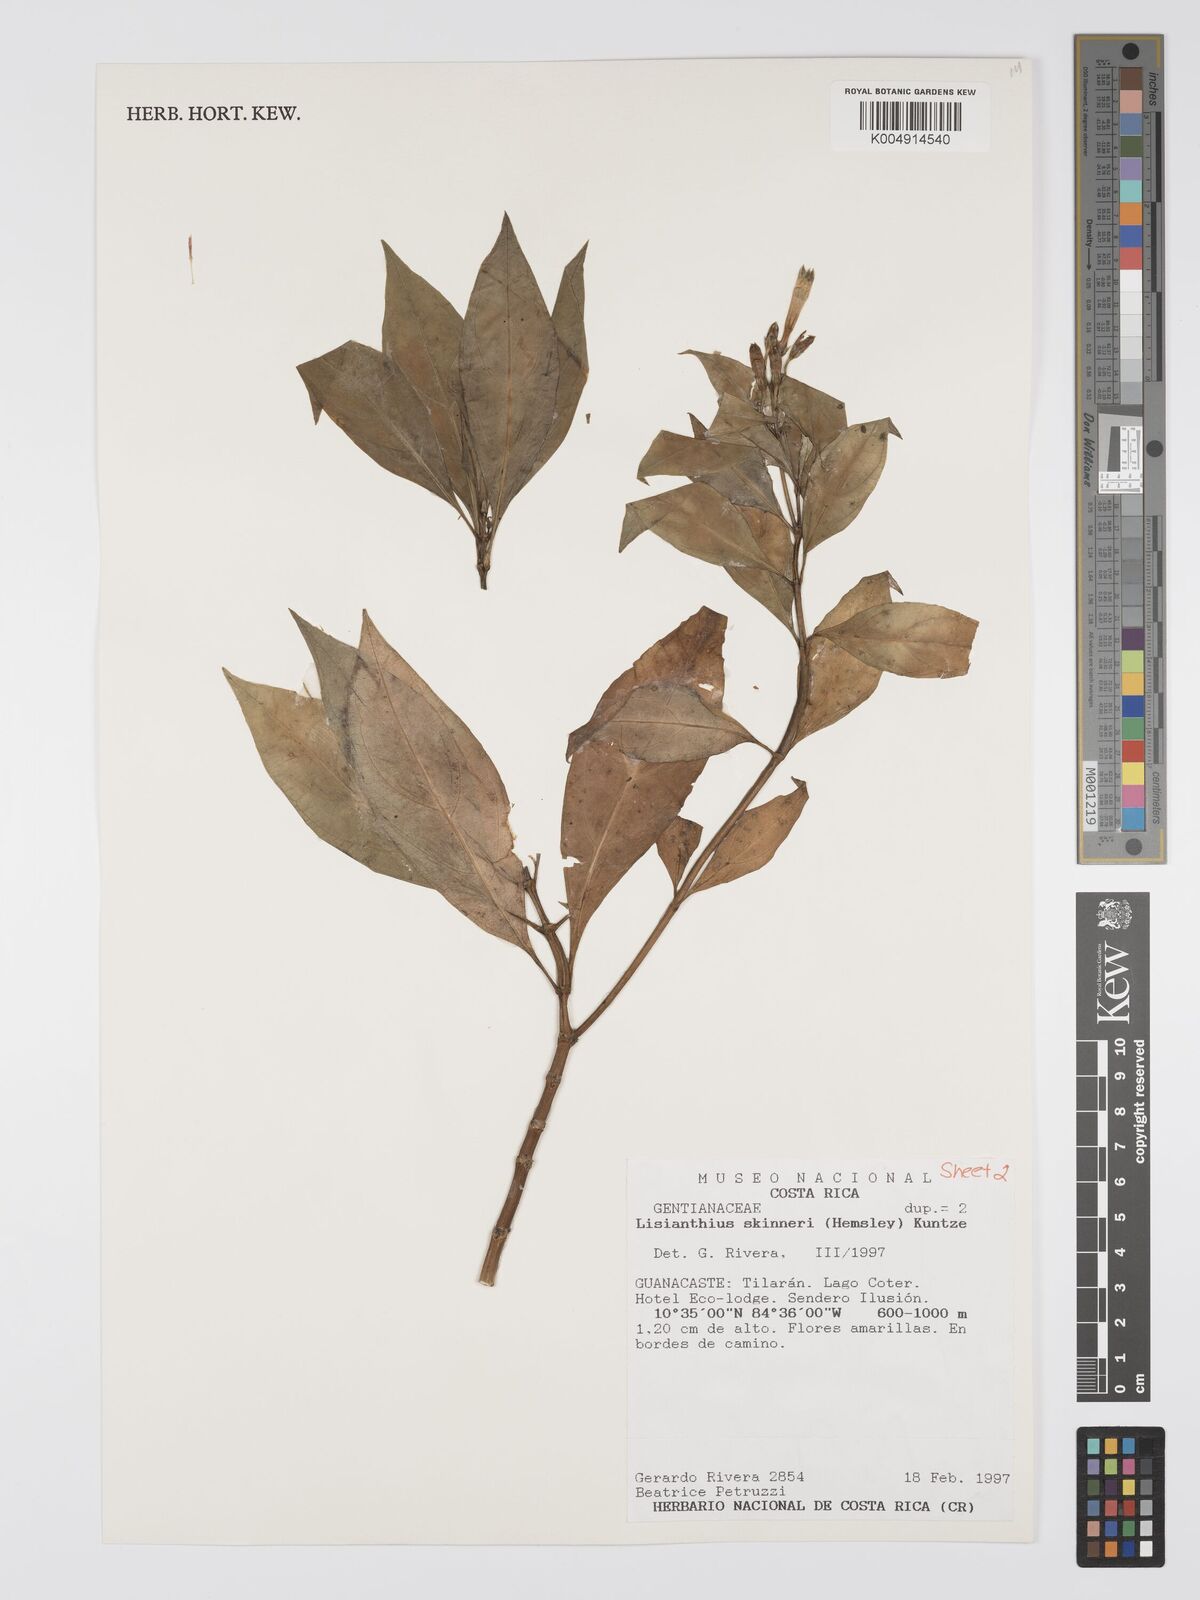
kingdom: Plantae
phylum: Tracheophyta
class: Magnoliopsida
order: Gentianales
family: Gentianaceae
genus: Lisianthus
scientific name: Lisianthus skinneri
